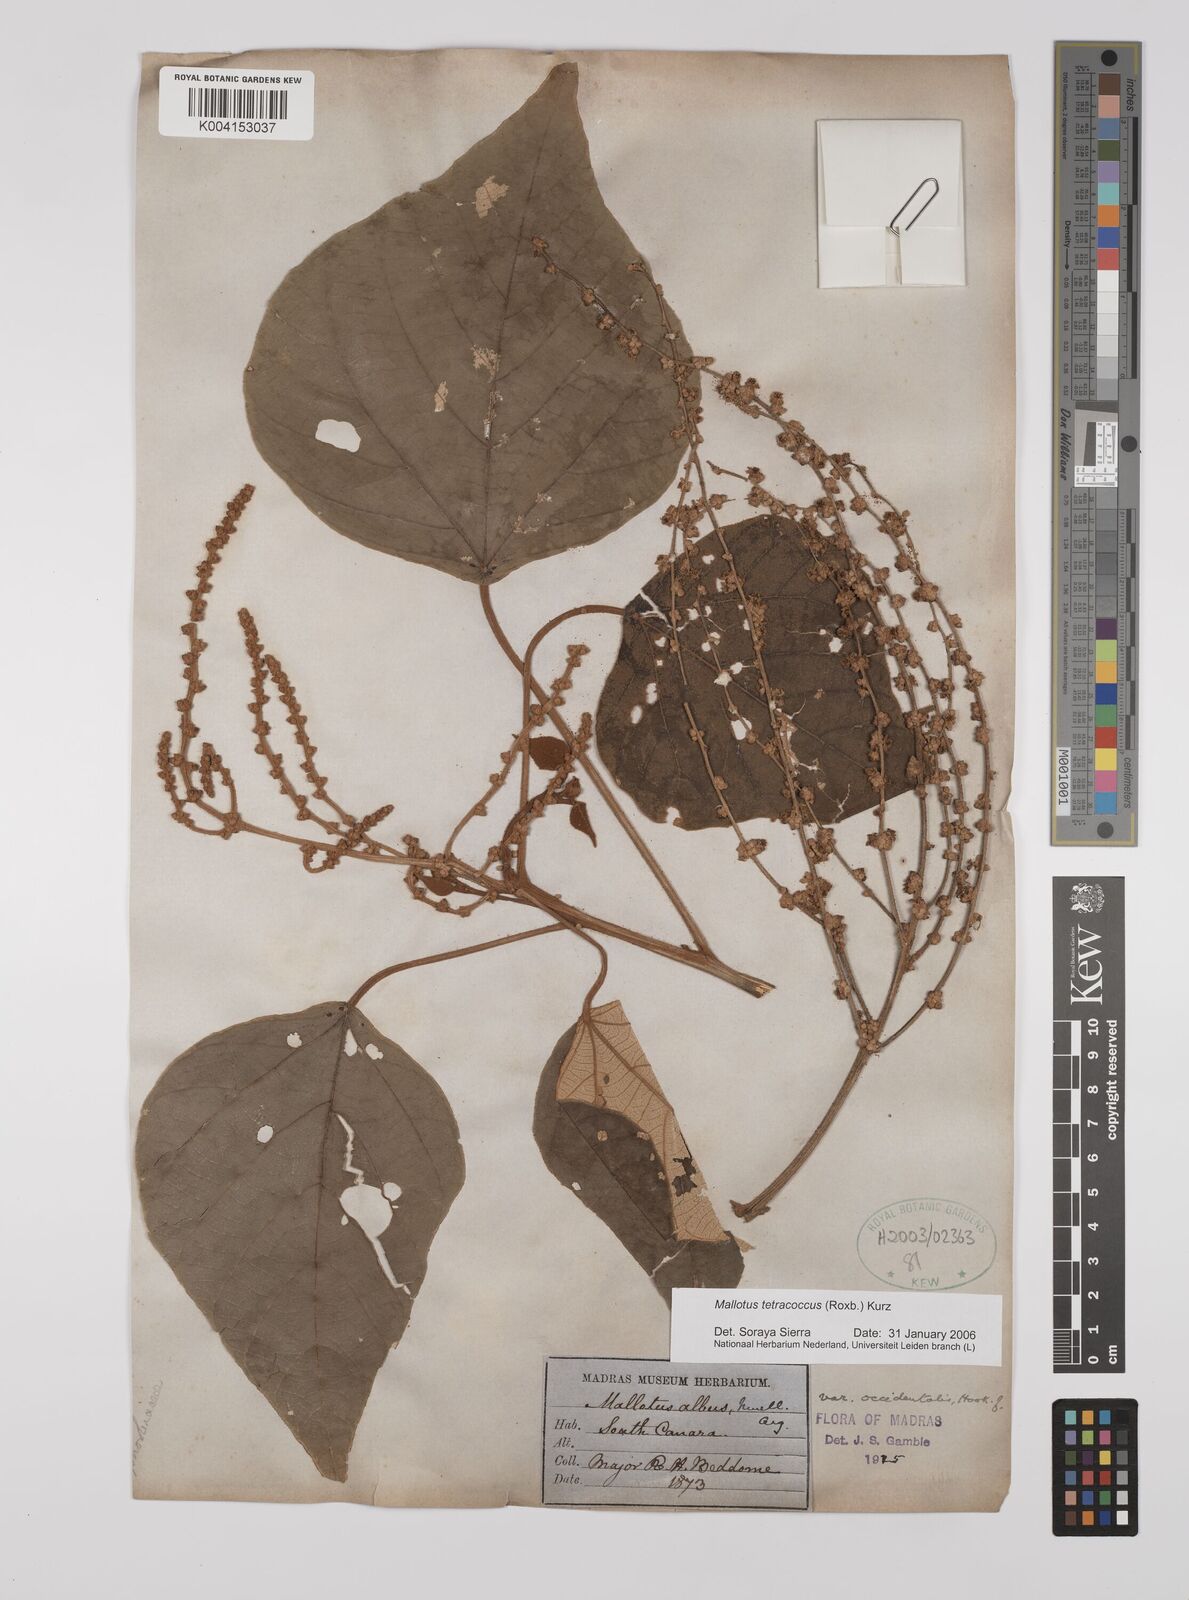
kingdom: Plantae
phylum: Tracheophyta
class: Magnoliopsida
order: Malpighiales
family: Euphorbiaceae
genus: Mallotus
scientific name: Mallotus tetracoccus
